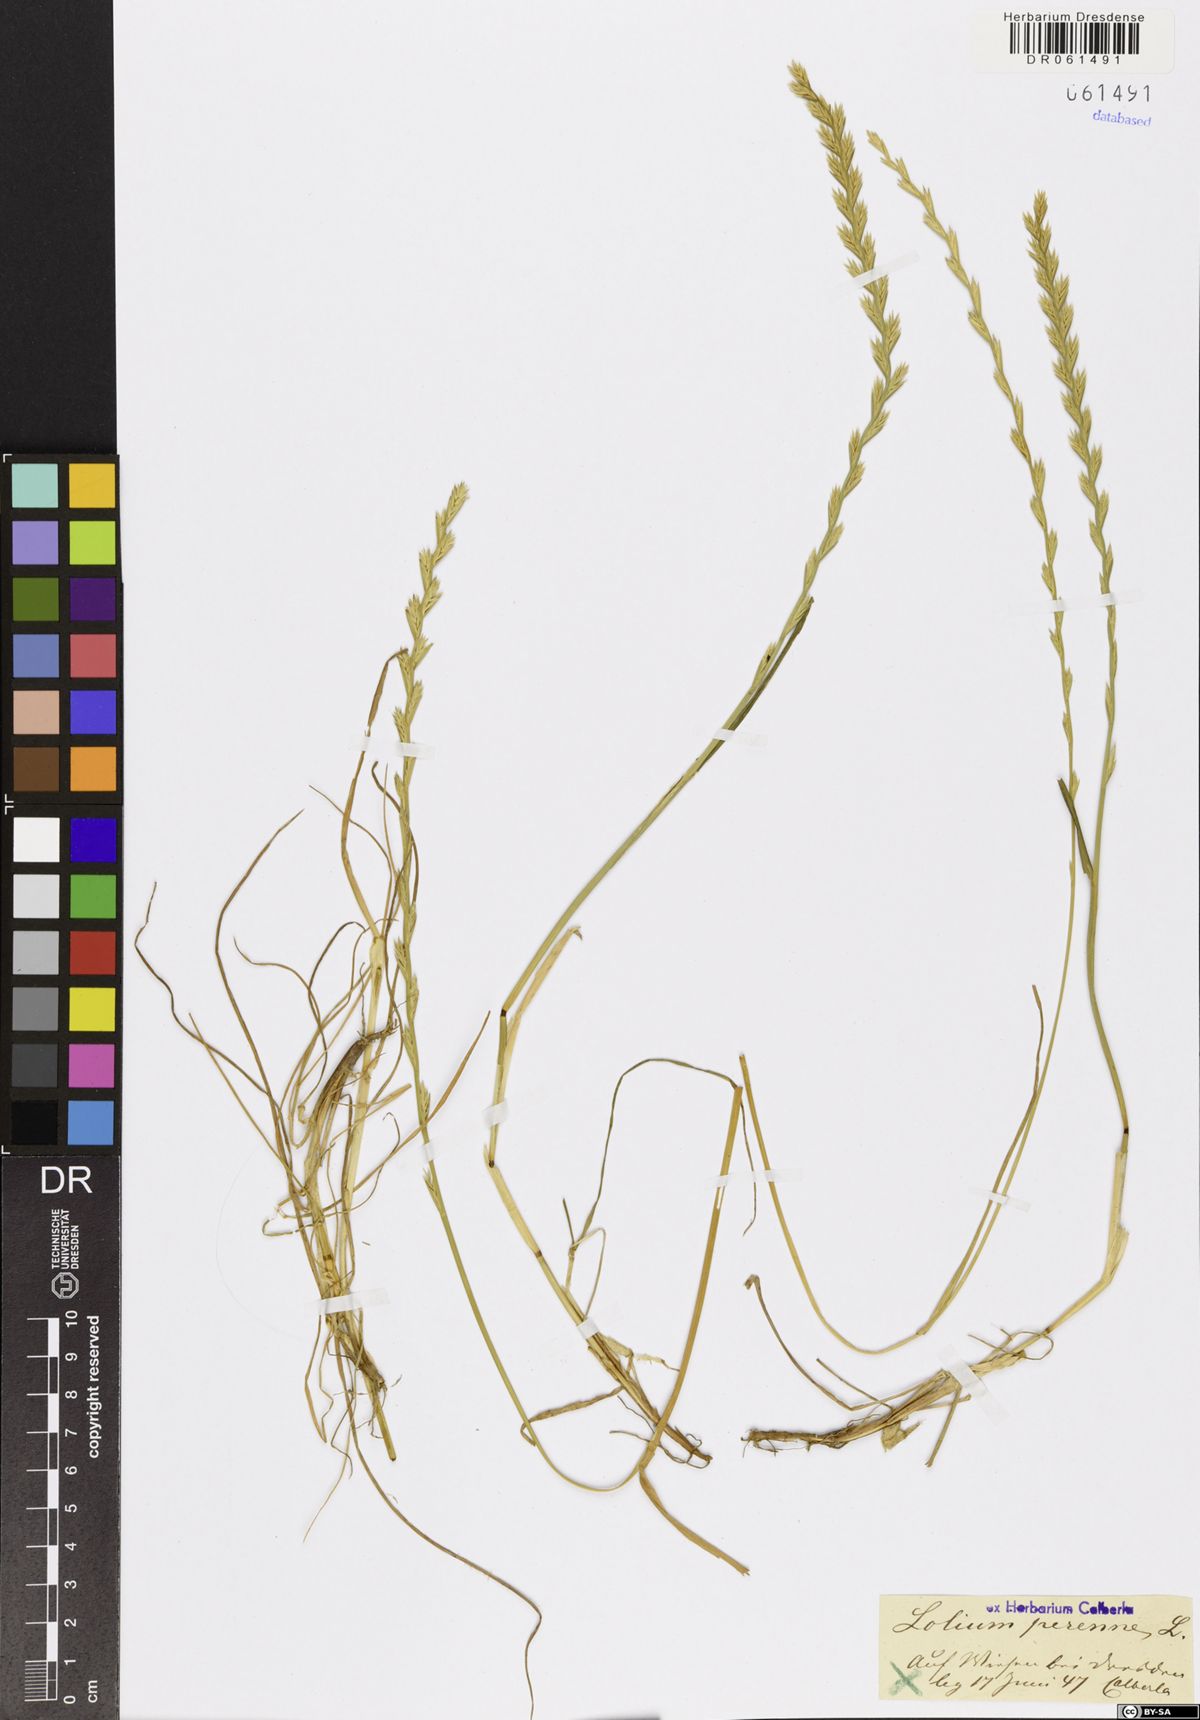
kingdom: Plantae
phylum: Tracheophyta
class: Liliopsida
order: Poales
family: Poaceae
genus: Lolium
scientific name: Lolium perenne
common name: Perennial ryegrass
